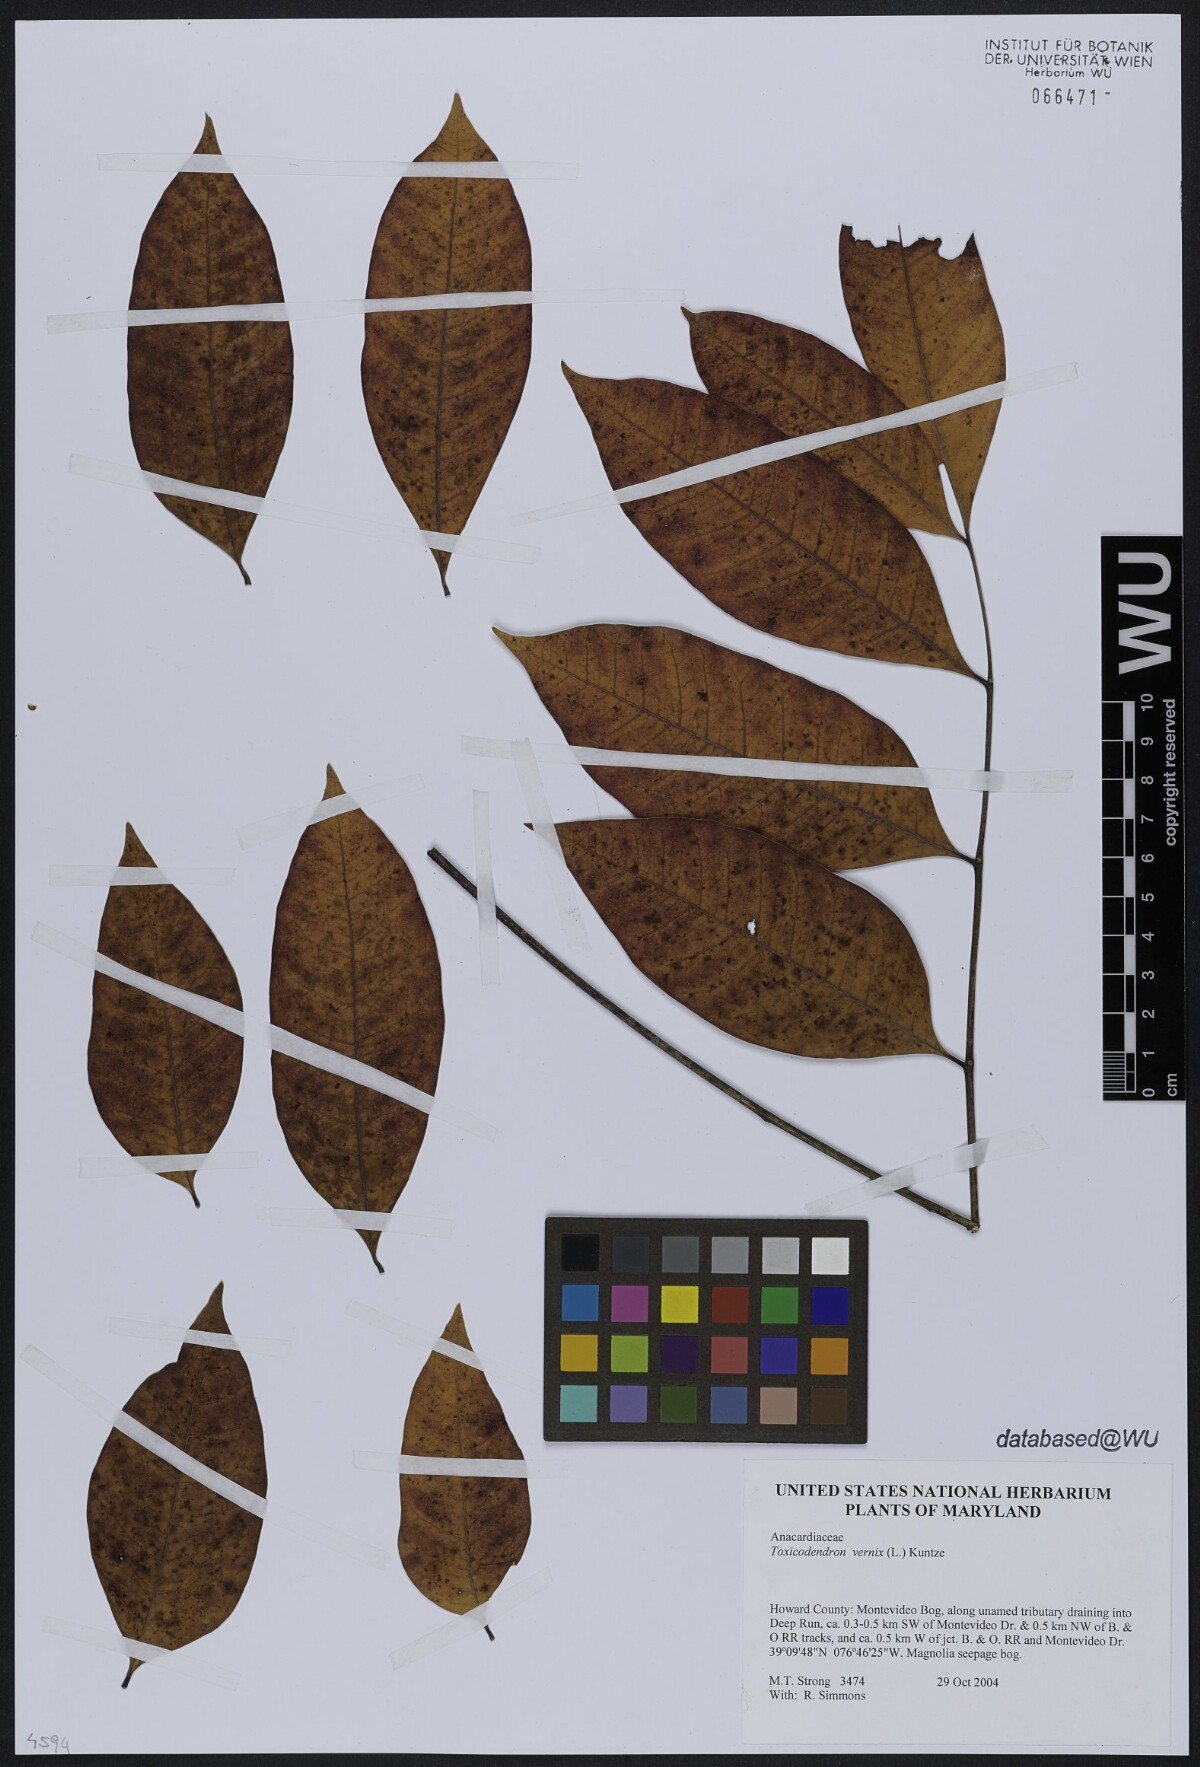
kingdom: Plantae
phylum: Tracheophyta
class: Magnoliopsida
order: Sapindales
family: Anacardiaceae
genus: Toxicodendron
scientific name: Toxicodendron vernix
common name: Poison sumac
